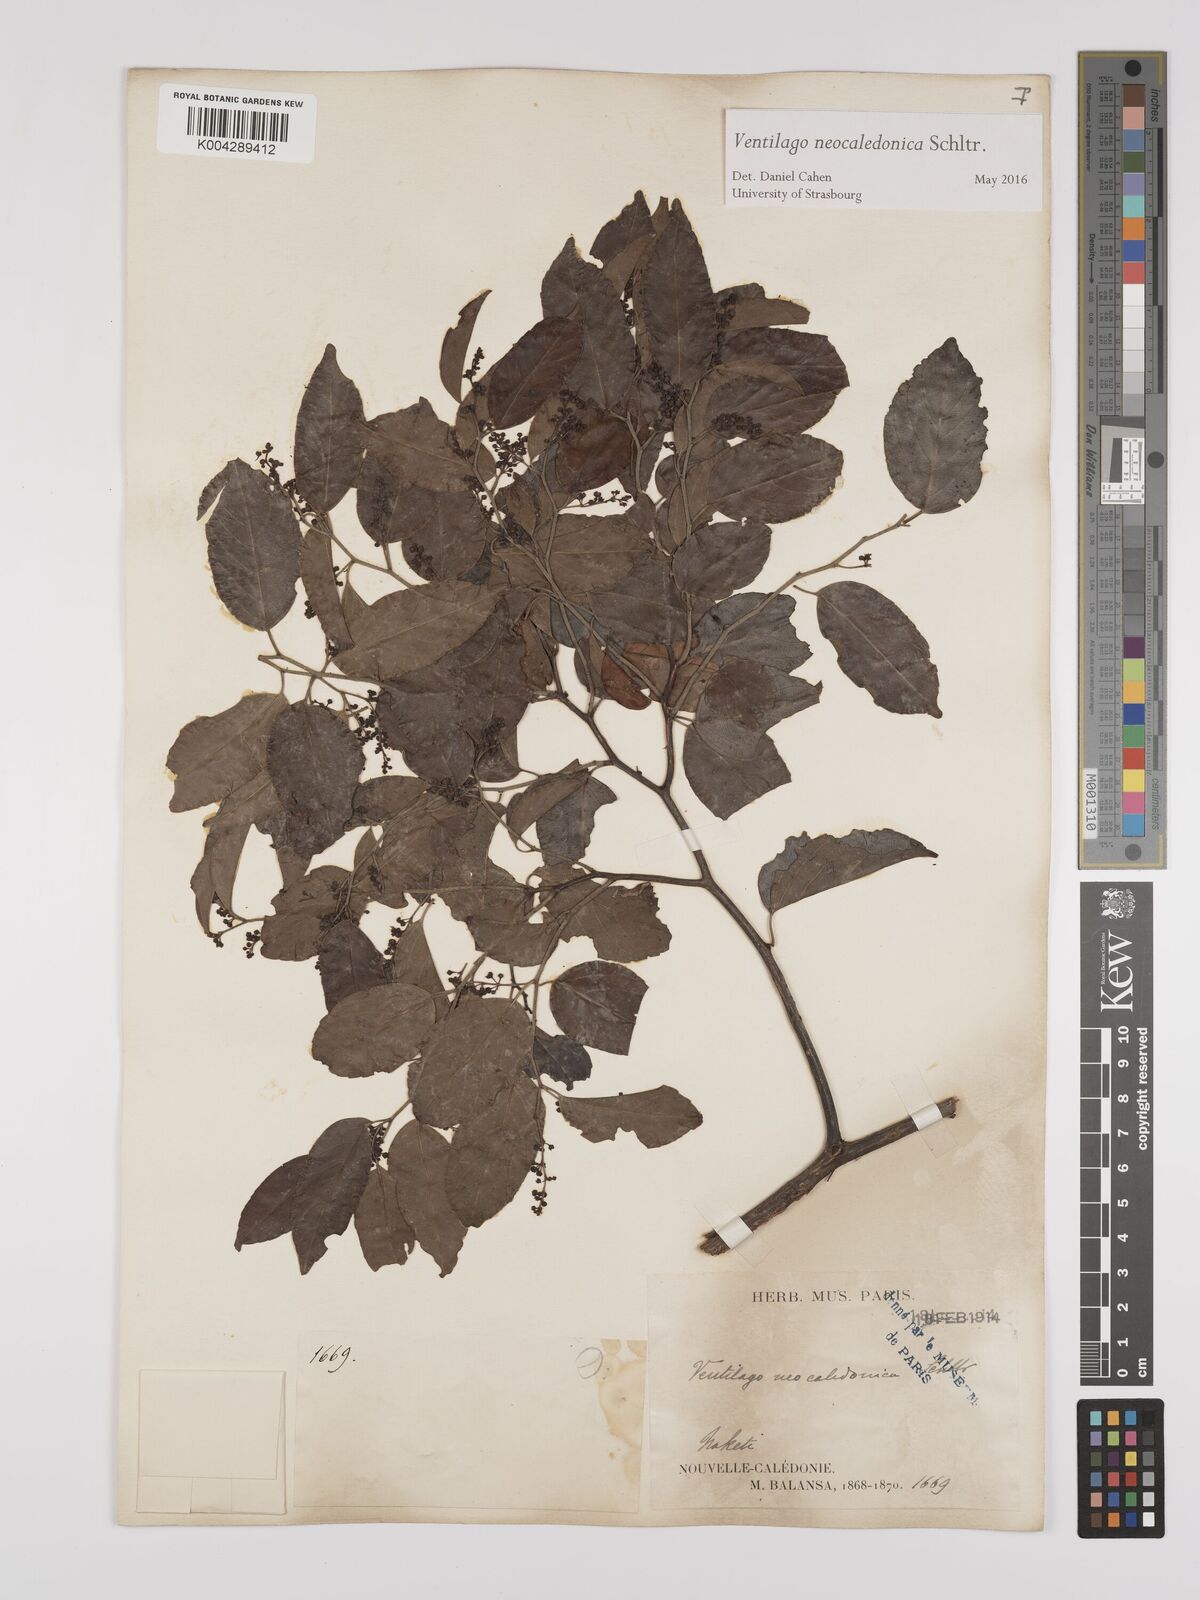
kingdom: Plantae
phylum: Tracheophyta
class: Magnoliopsida
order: Rosales
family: Rhamnaceae
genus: Ventilago
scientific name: Ventilago neocaledonica
